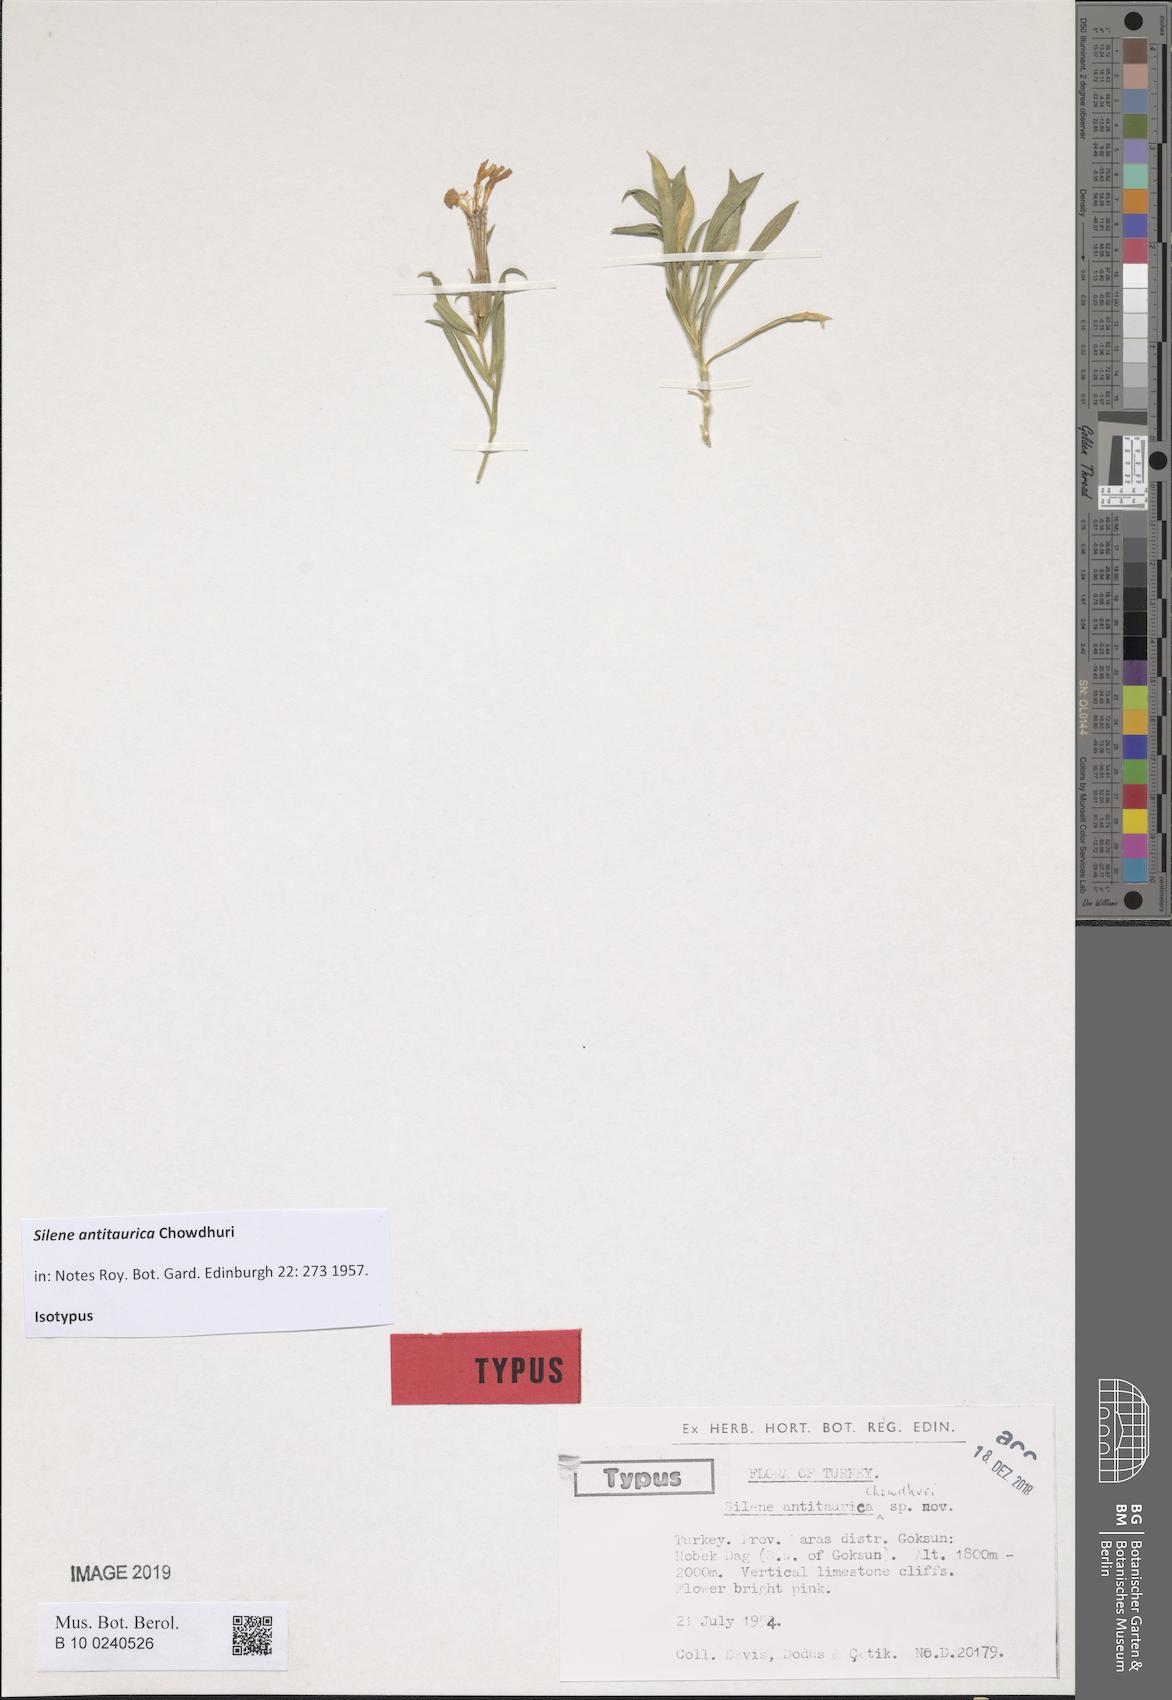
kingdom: Plantae
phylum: Tracheophyta
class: Magnoliopsida
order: Caryophyllales
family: Caryophyllaceae
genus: Silene
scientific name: Silene brevicaulis
